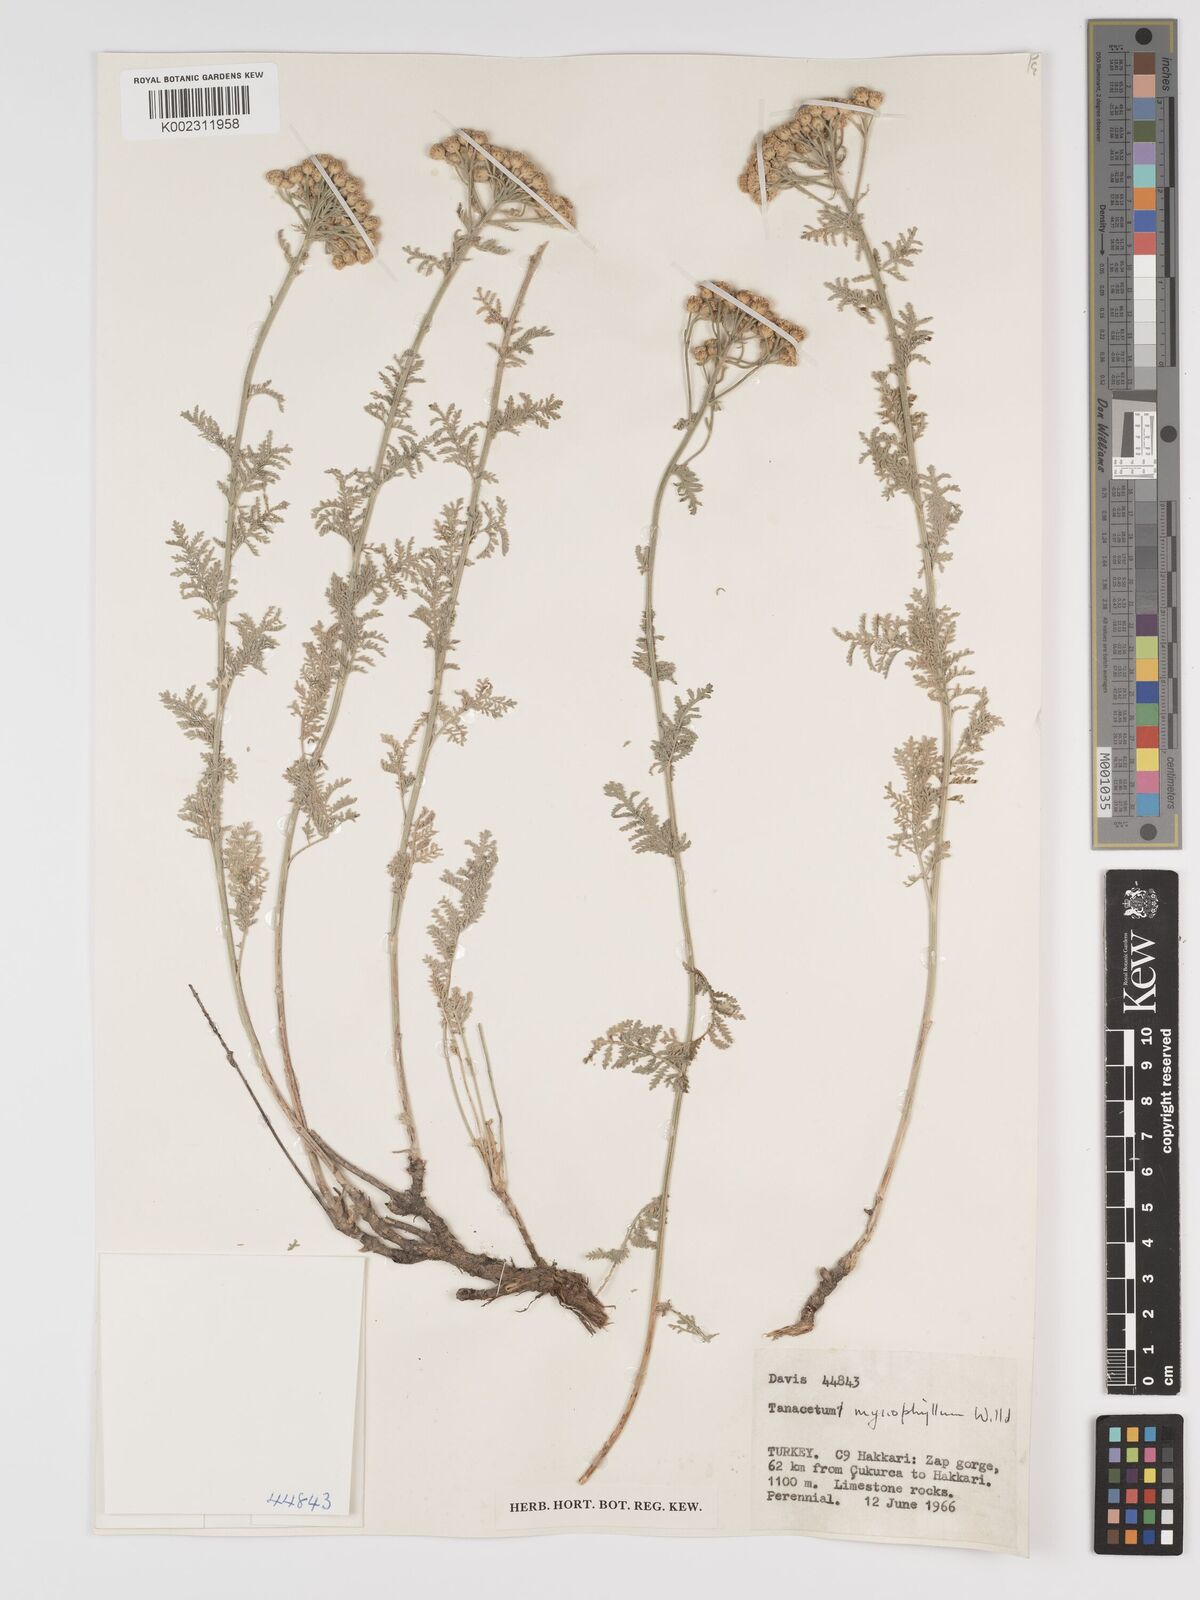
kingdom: Plantae
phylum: Tracheophyta
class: Magnoliopsida
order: Asterales
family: Asteraceae
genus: Tanacetum
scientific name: Tanacetum polycephalum
